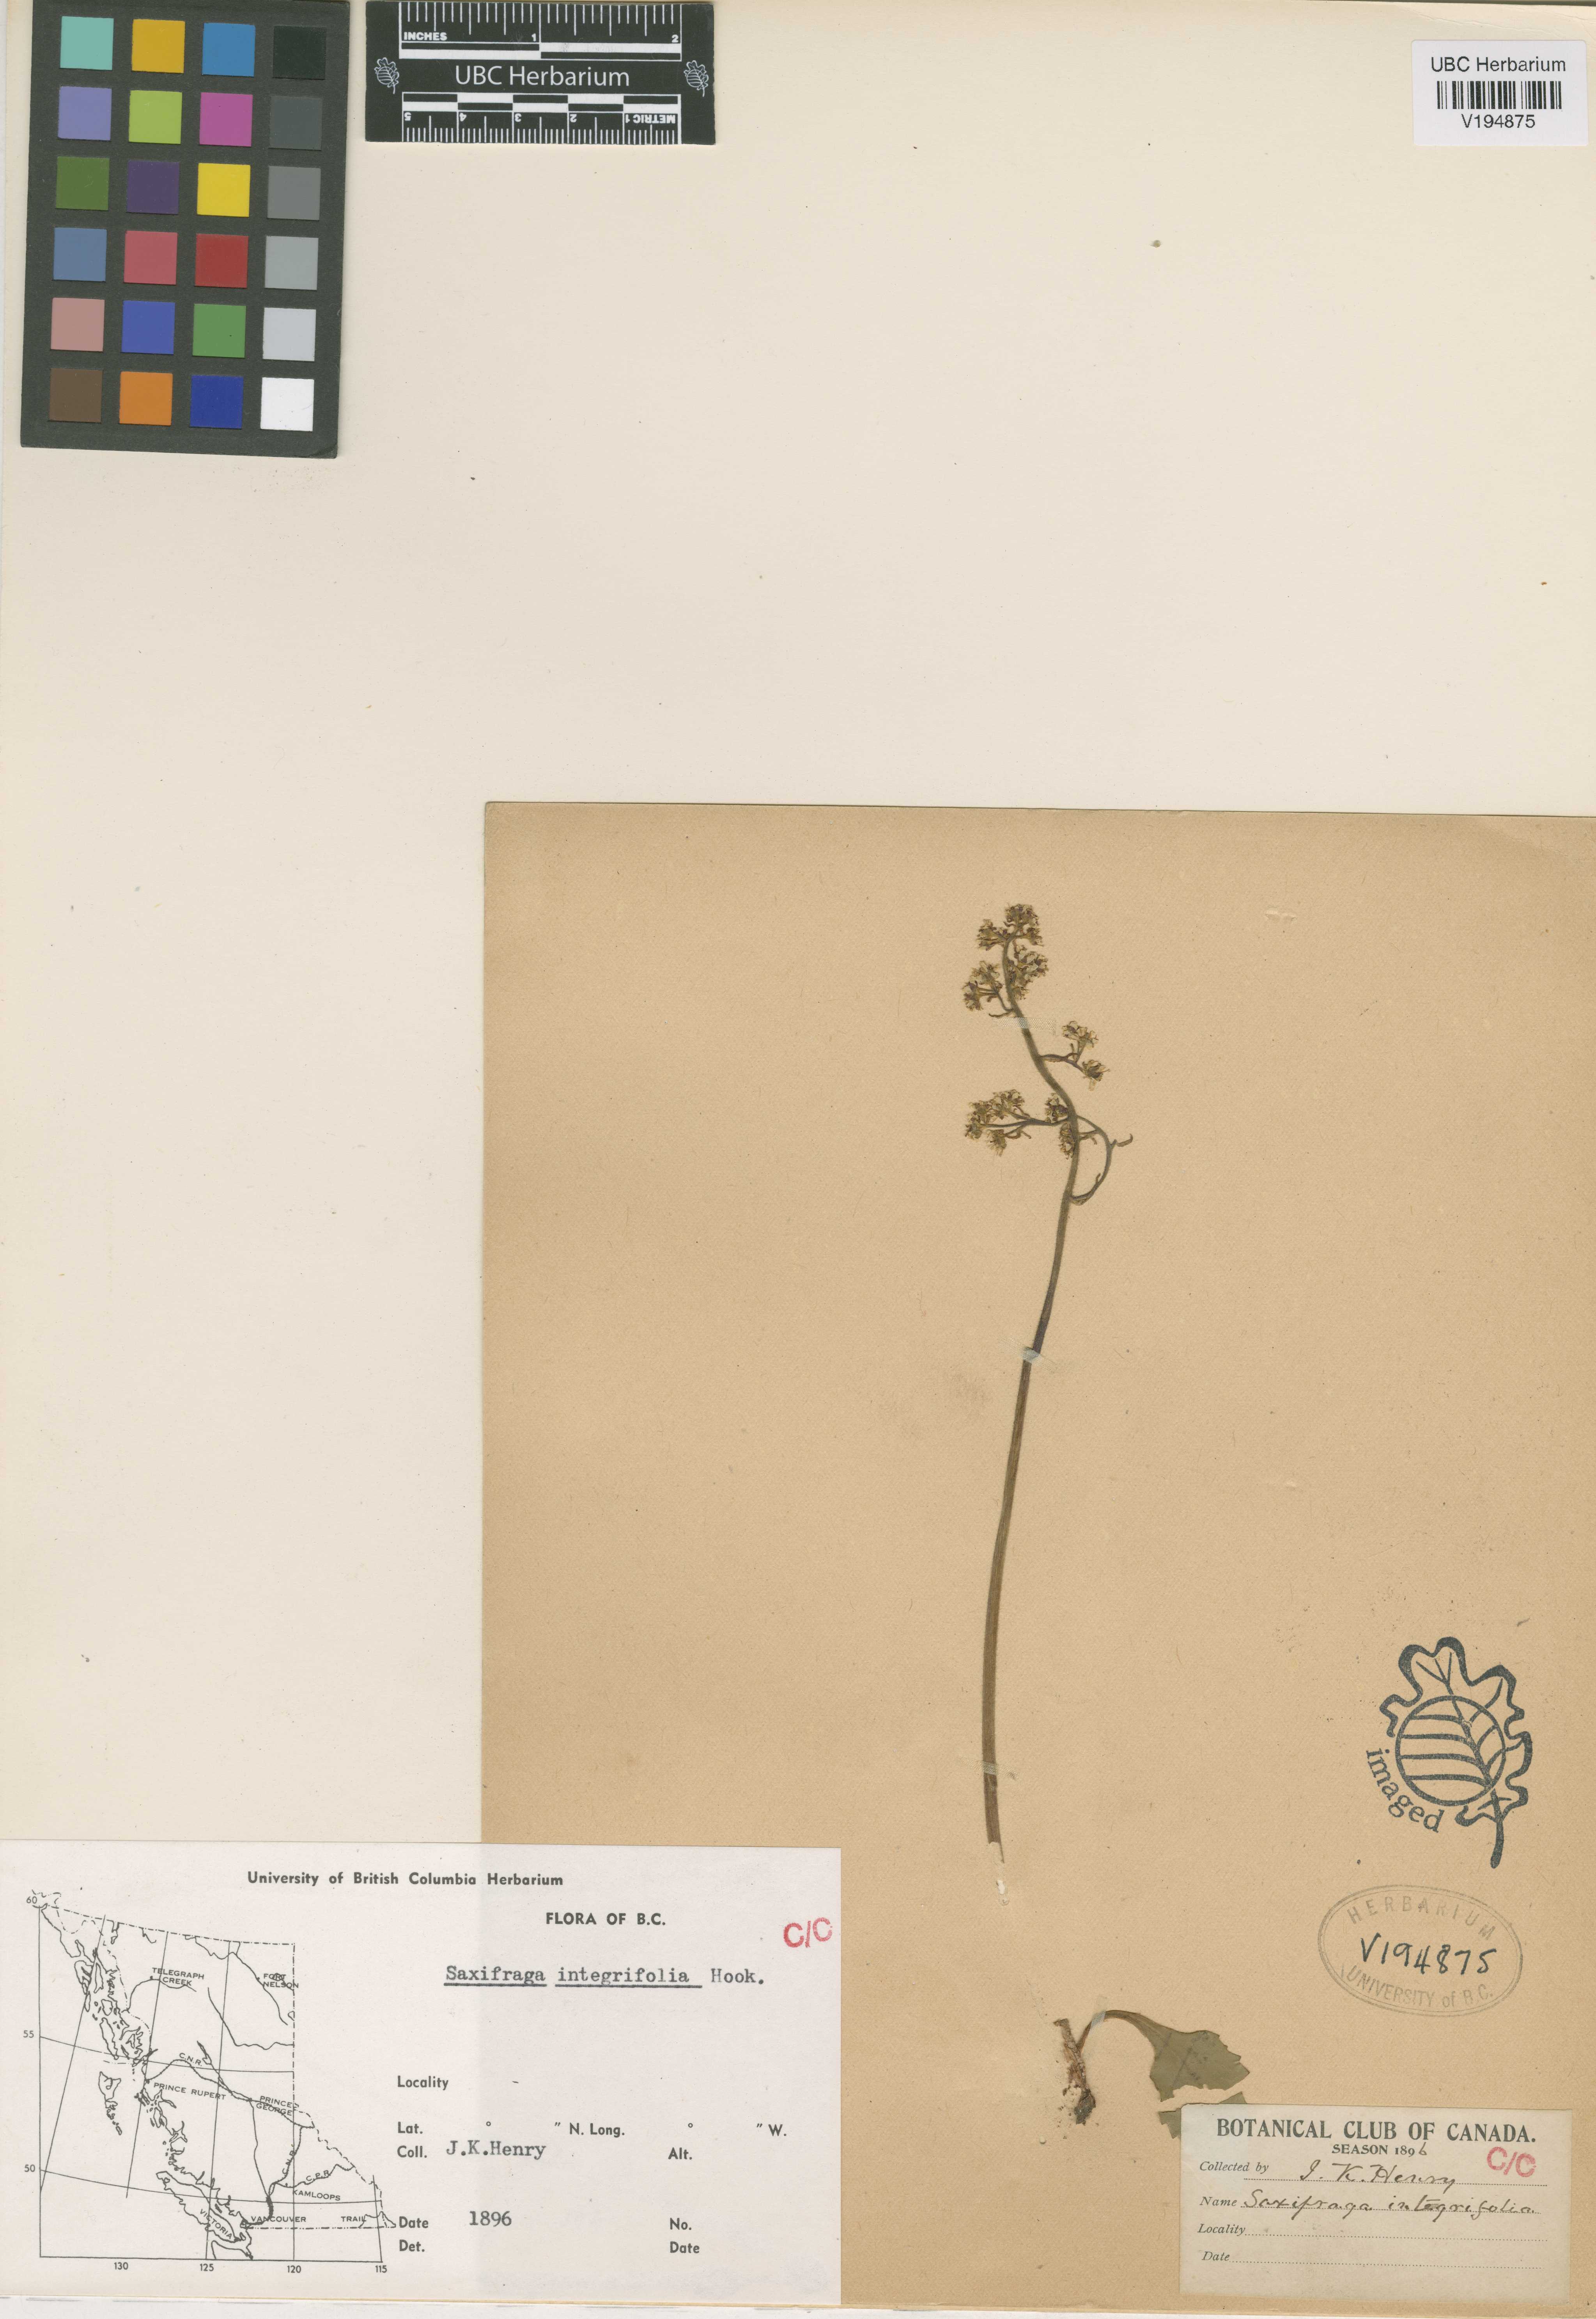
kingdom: Plantae
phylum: Tracheophyta
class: Magnoliopsida
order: Saxifragales
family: Saxifragaceae
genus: Micranthes
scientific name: Micranthes integrifolia
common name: Wholeleaf saxifrage
